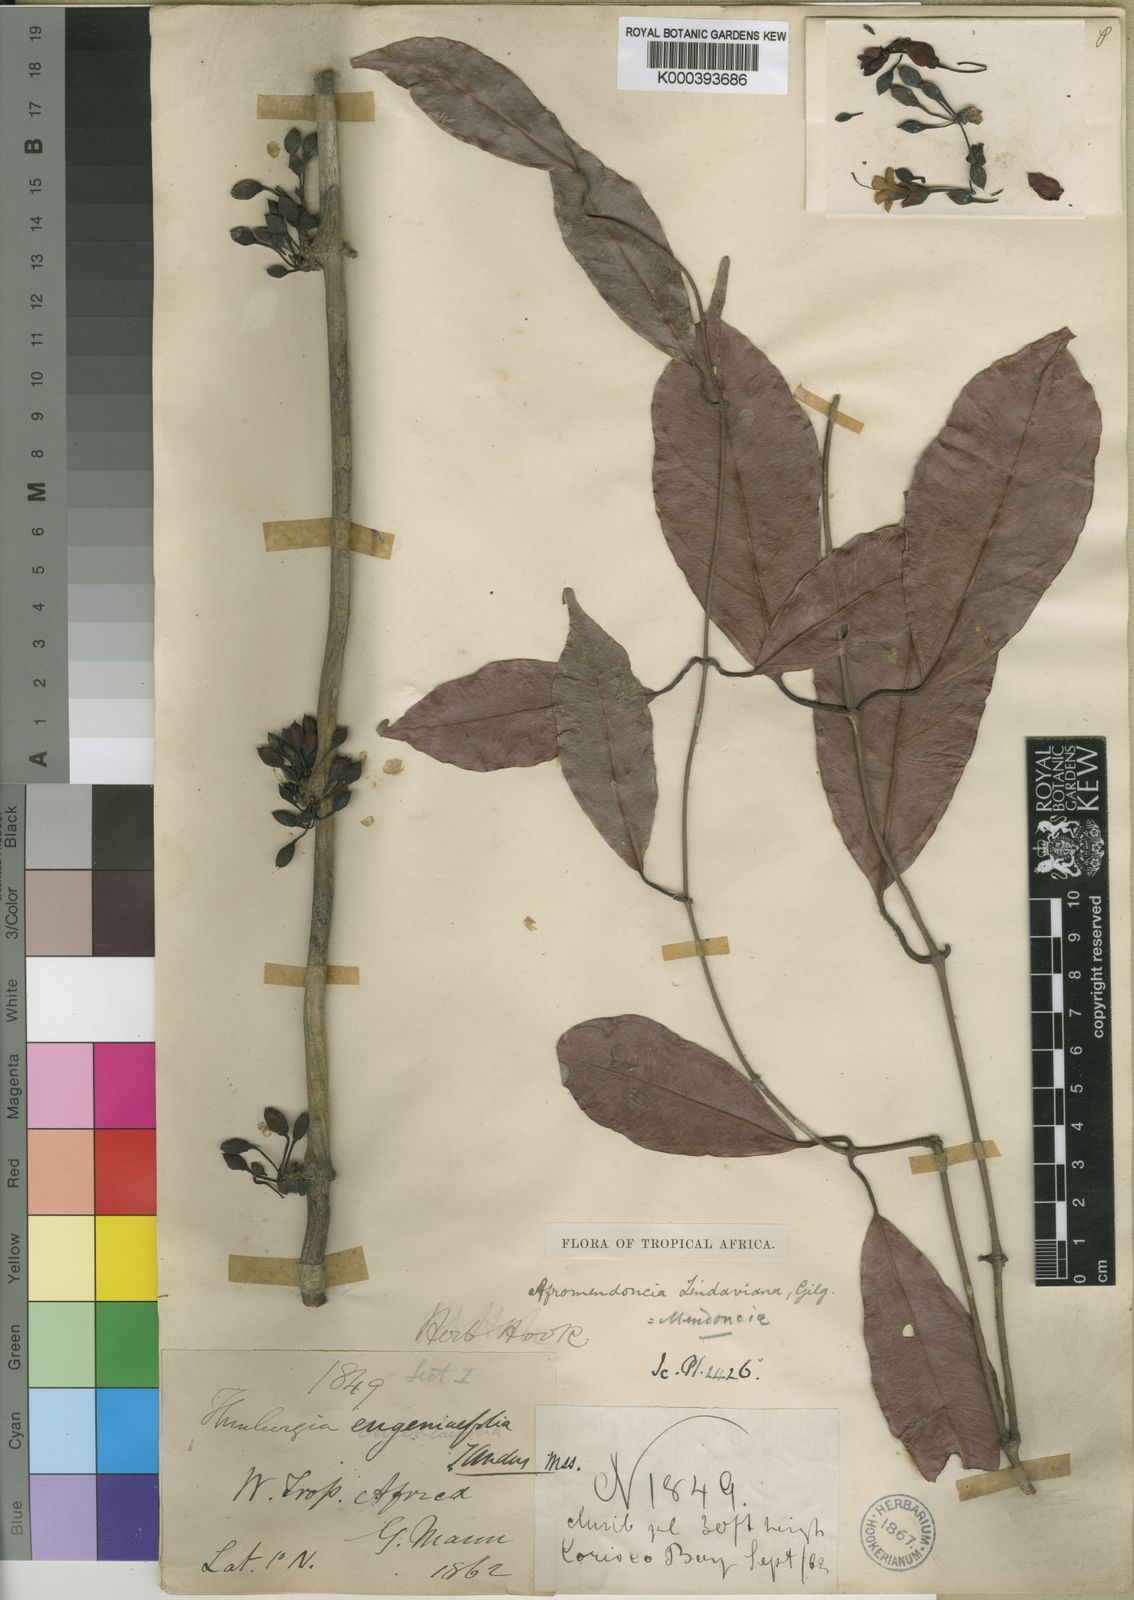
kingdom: Plantae
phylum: Tracheophyta
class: Magnoliopsida
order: Lamiales
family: Acanthaceae
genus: Mendoncia
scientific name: Mendoncia lindaviana
